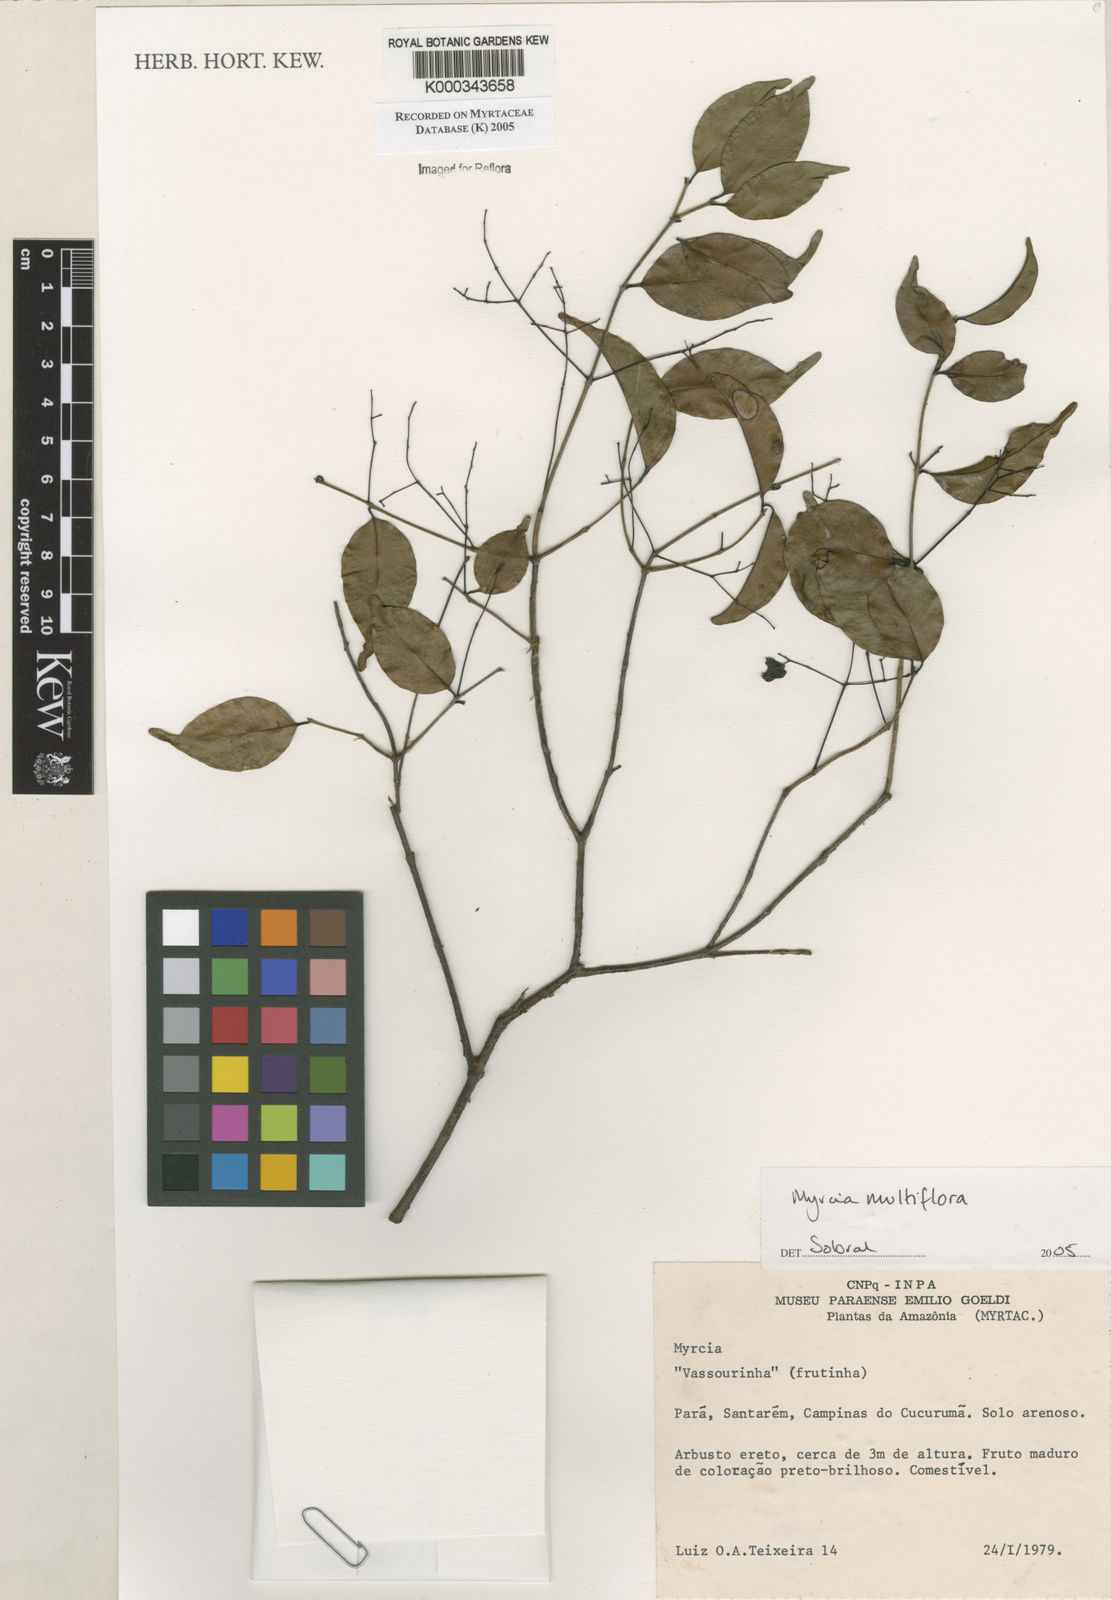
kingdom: Plantae
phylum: Tracheophyta
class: Magnoliopsida
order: Myrtales
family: Myrtaceae
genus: Myrcia
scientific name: Myrcia
